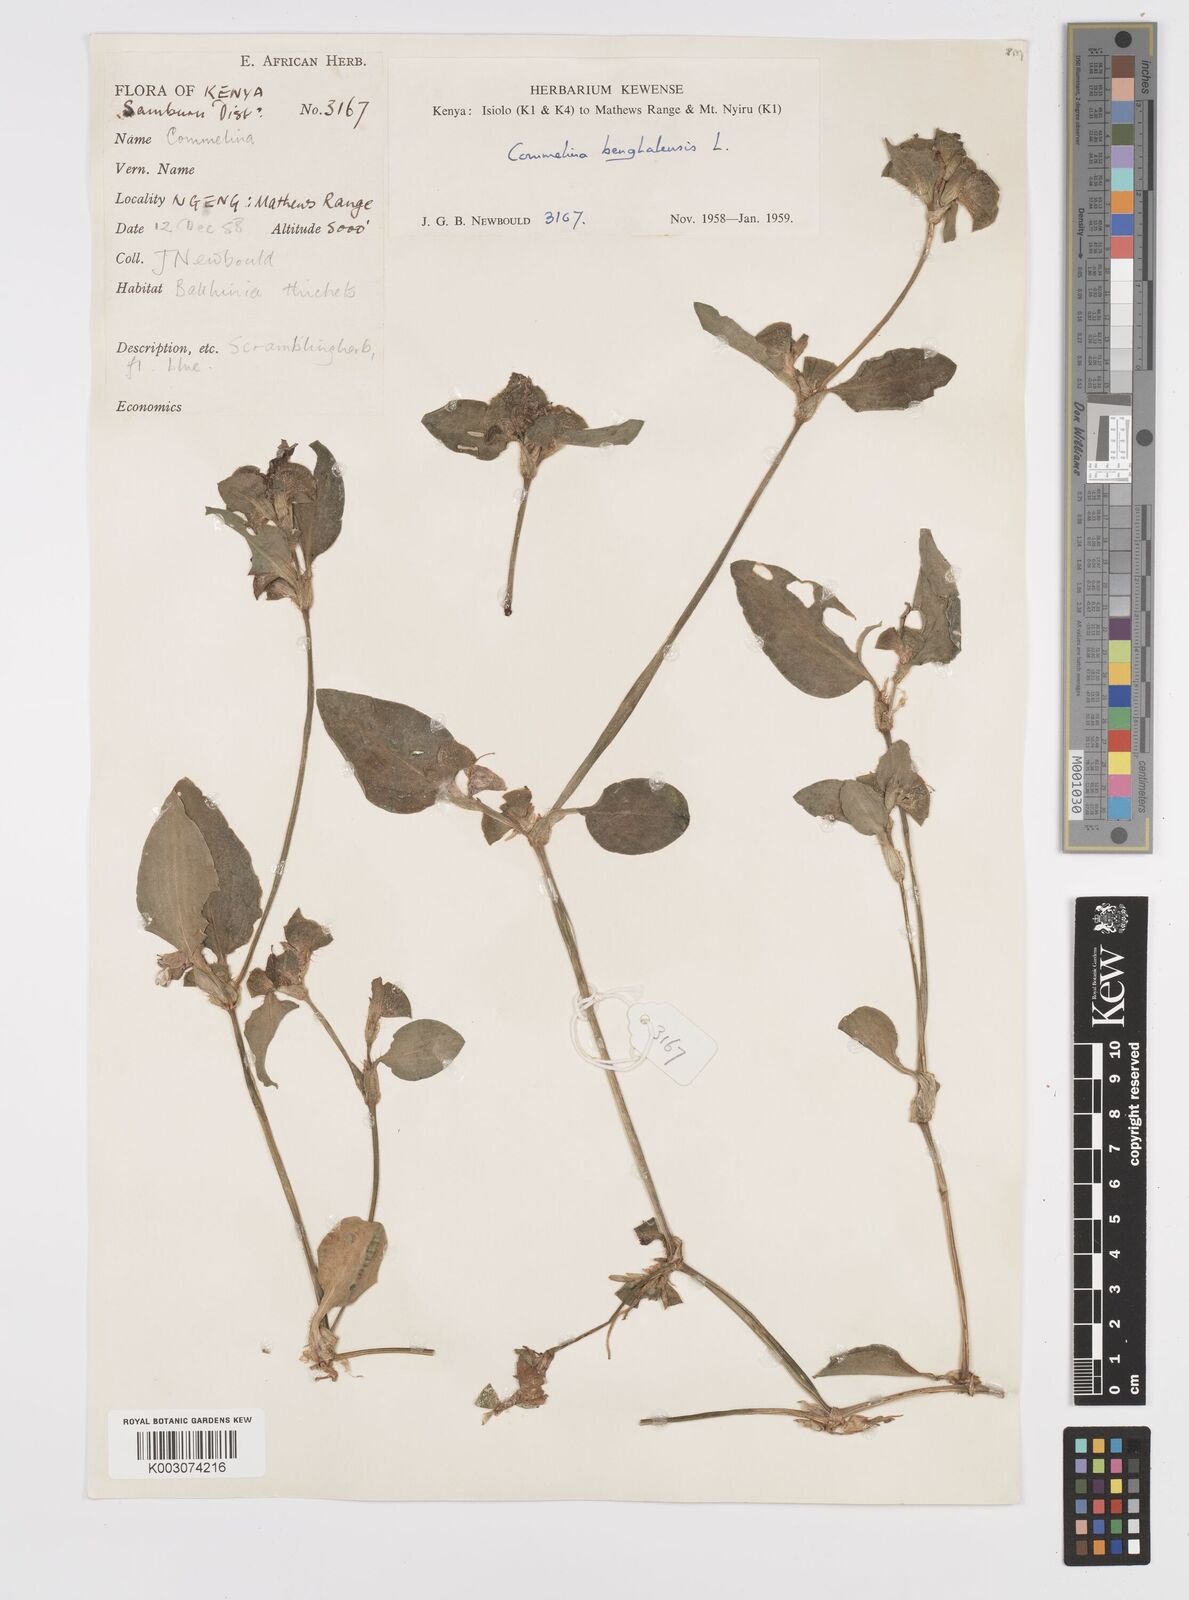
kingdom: Plantae
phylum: Tracheophyta
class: Liliopsida
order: Commelinales
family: Commelinaceae
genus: Commelina
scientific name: Commelina benghalensis
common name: Jio
